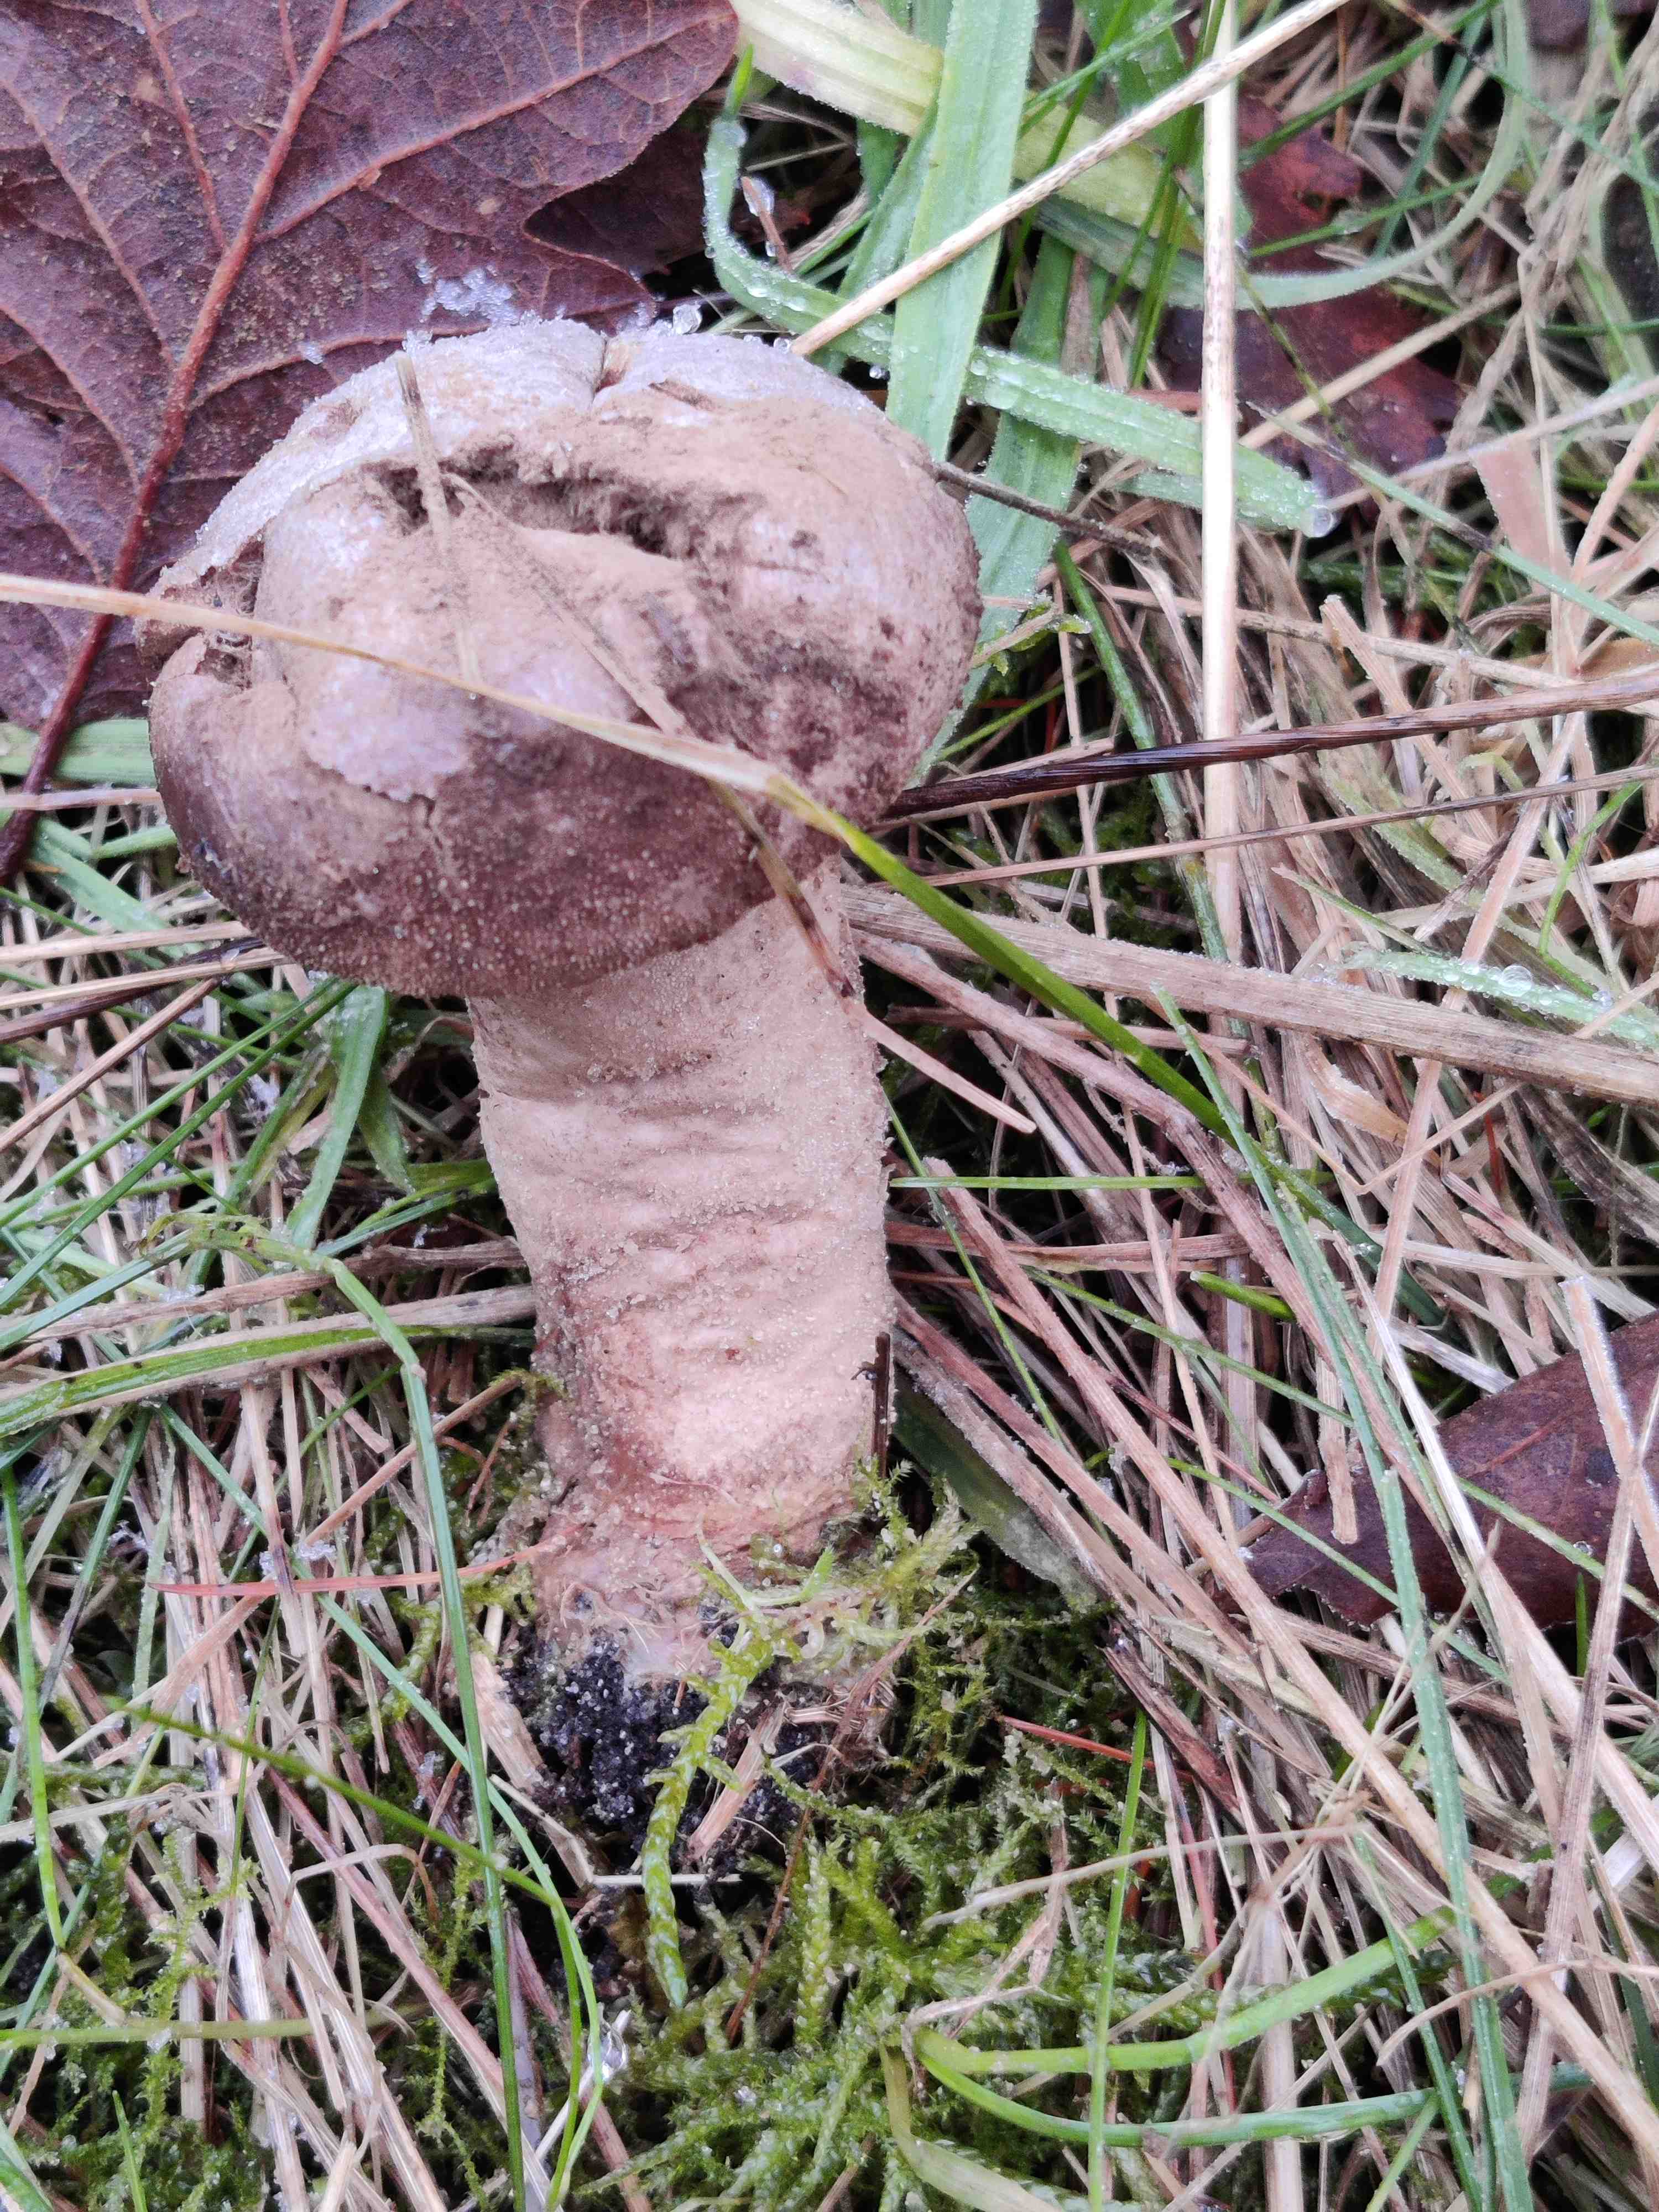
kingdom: Fungi
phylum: Basidiomycota
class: Agaricomycetes
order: Agaricales
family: Lycoperdaceae
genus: Lycoperdon
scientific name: Lycoperdon excipuliforme
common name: højstokket støvbold
